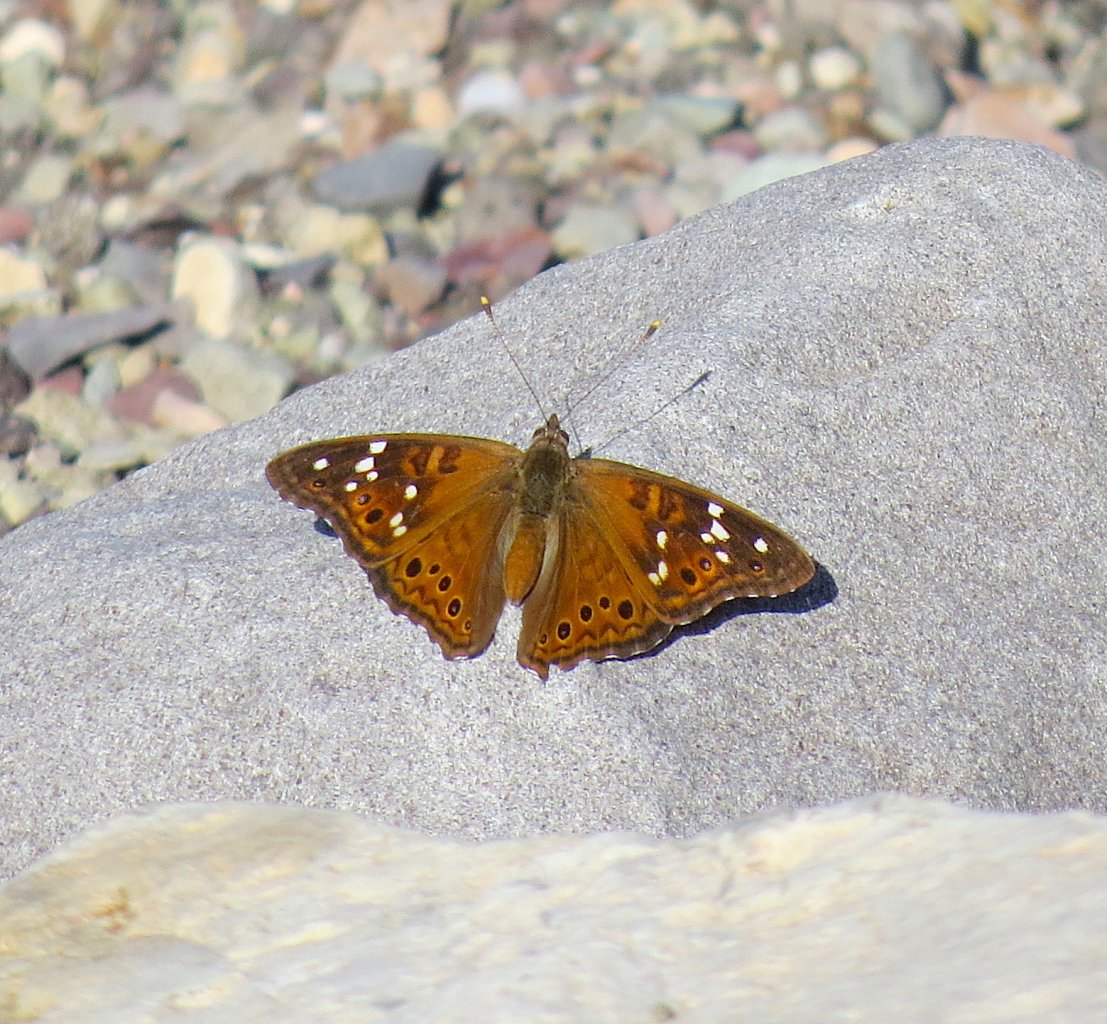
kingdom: Animalia
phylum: Arthropoda
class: Insecta
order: Lepidoptera
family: Nymphalidae
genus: Asterocampa
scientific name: Asterocampa leilia
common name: Empress Leilia
